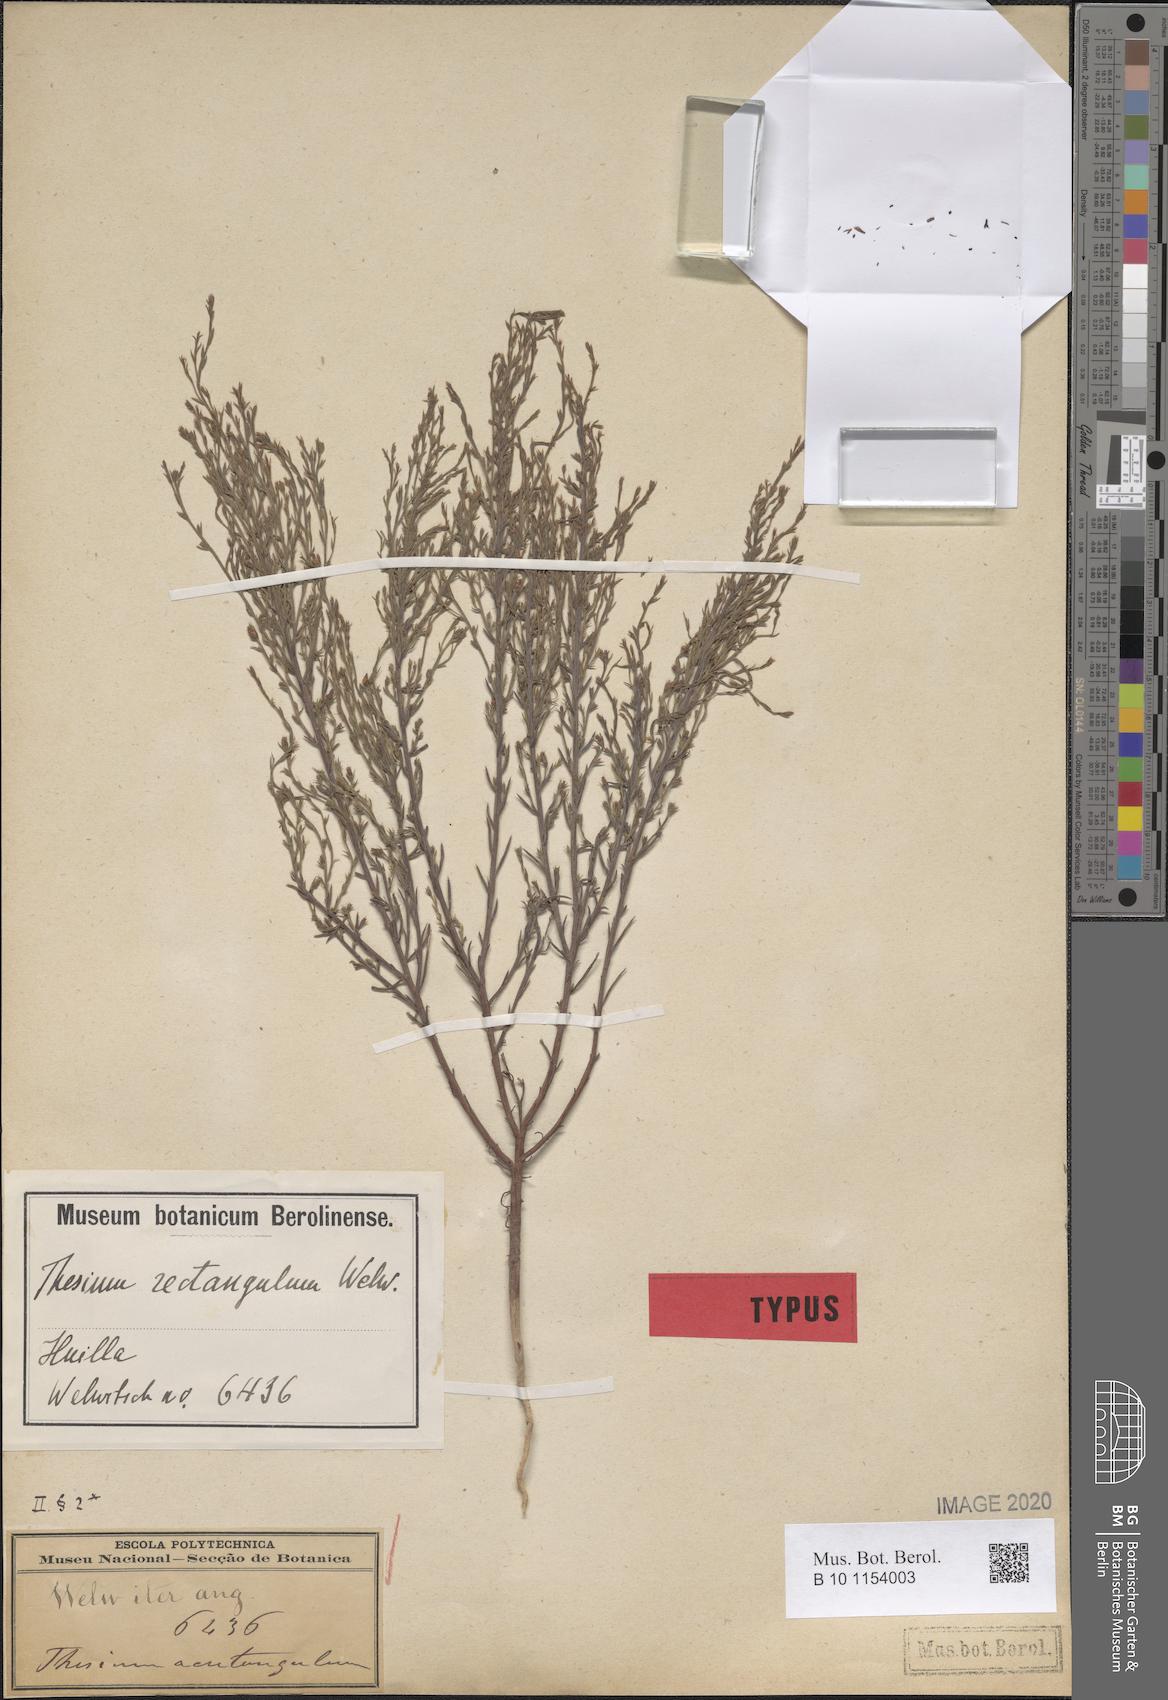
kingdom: Plantae
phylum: Tracheophyta
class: Magnoliopsida
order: Santalales
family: Thesiaceae
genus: Thesium
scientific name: Thesium rectangulum
